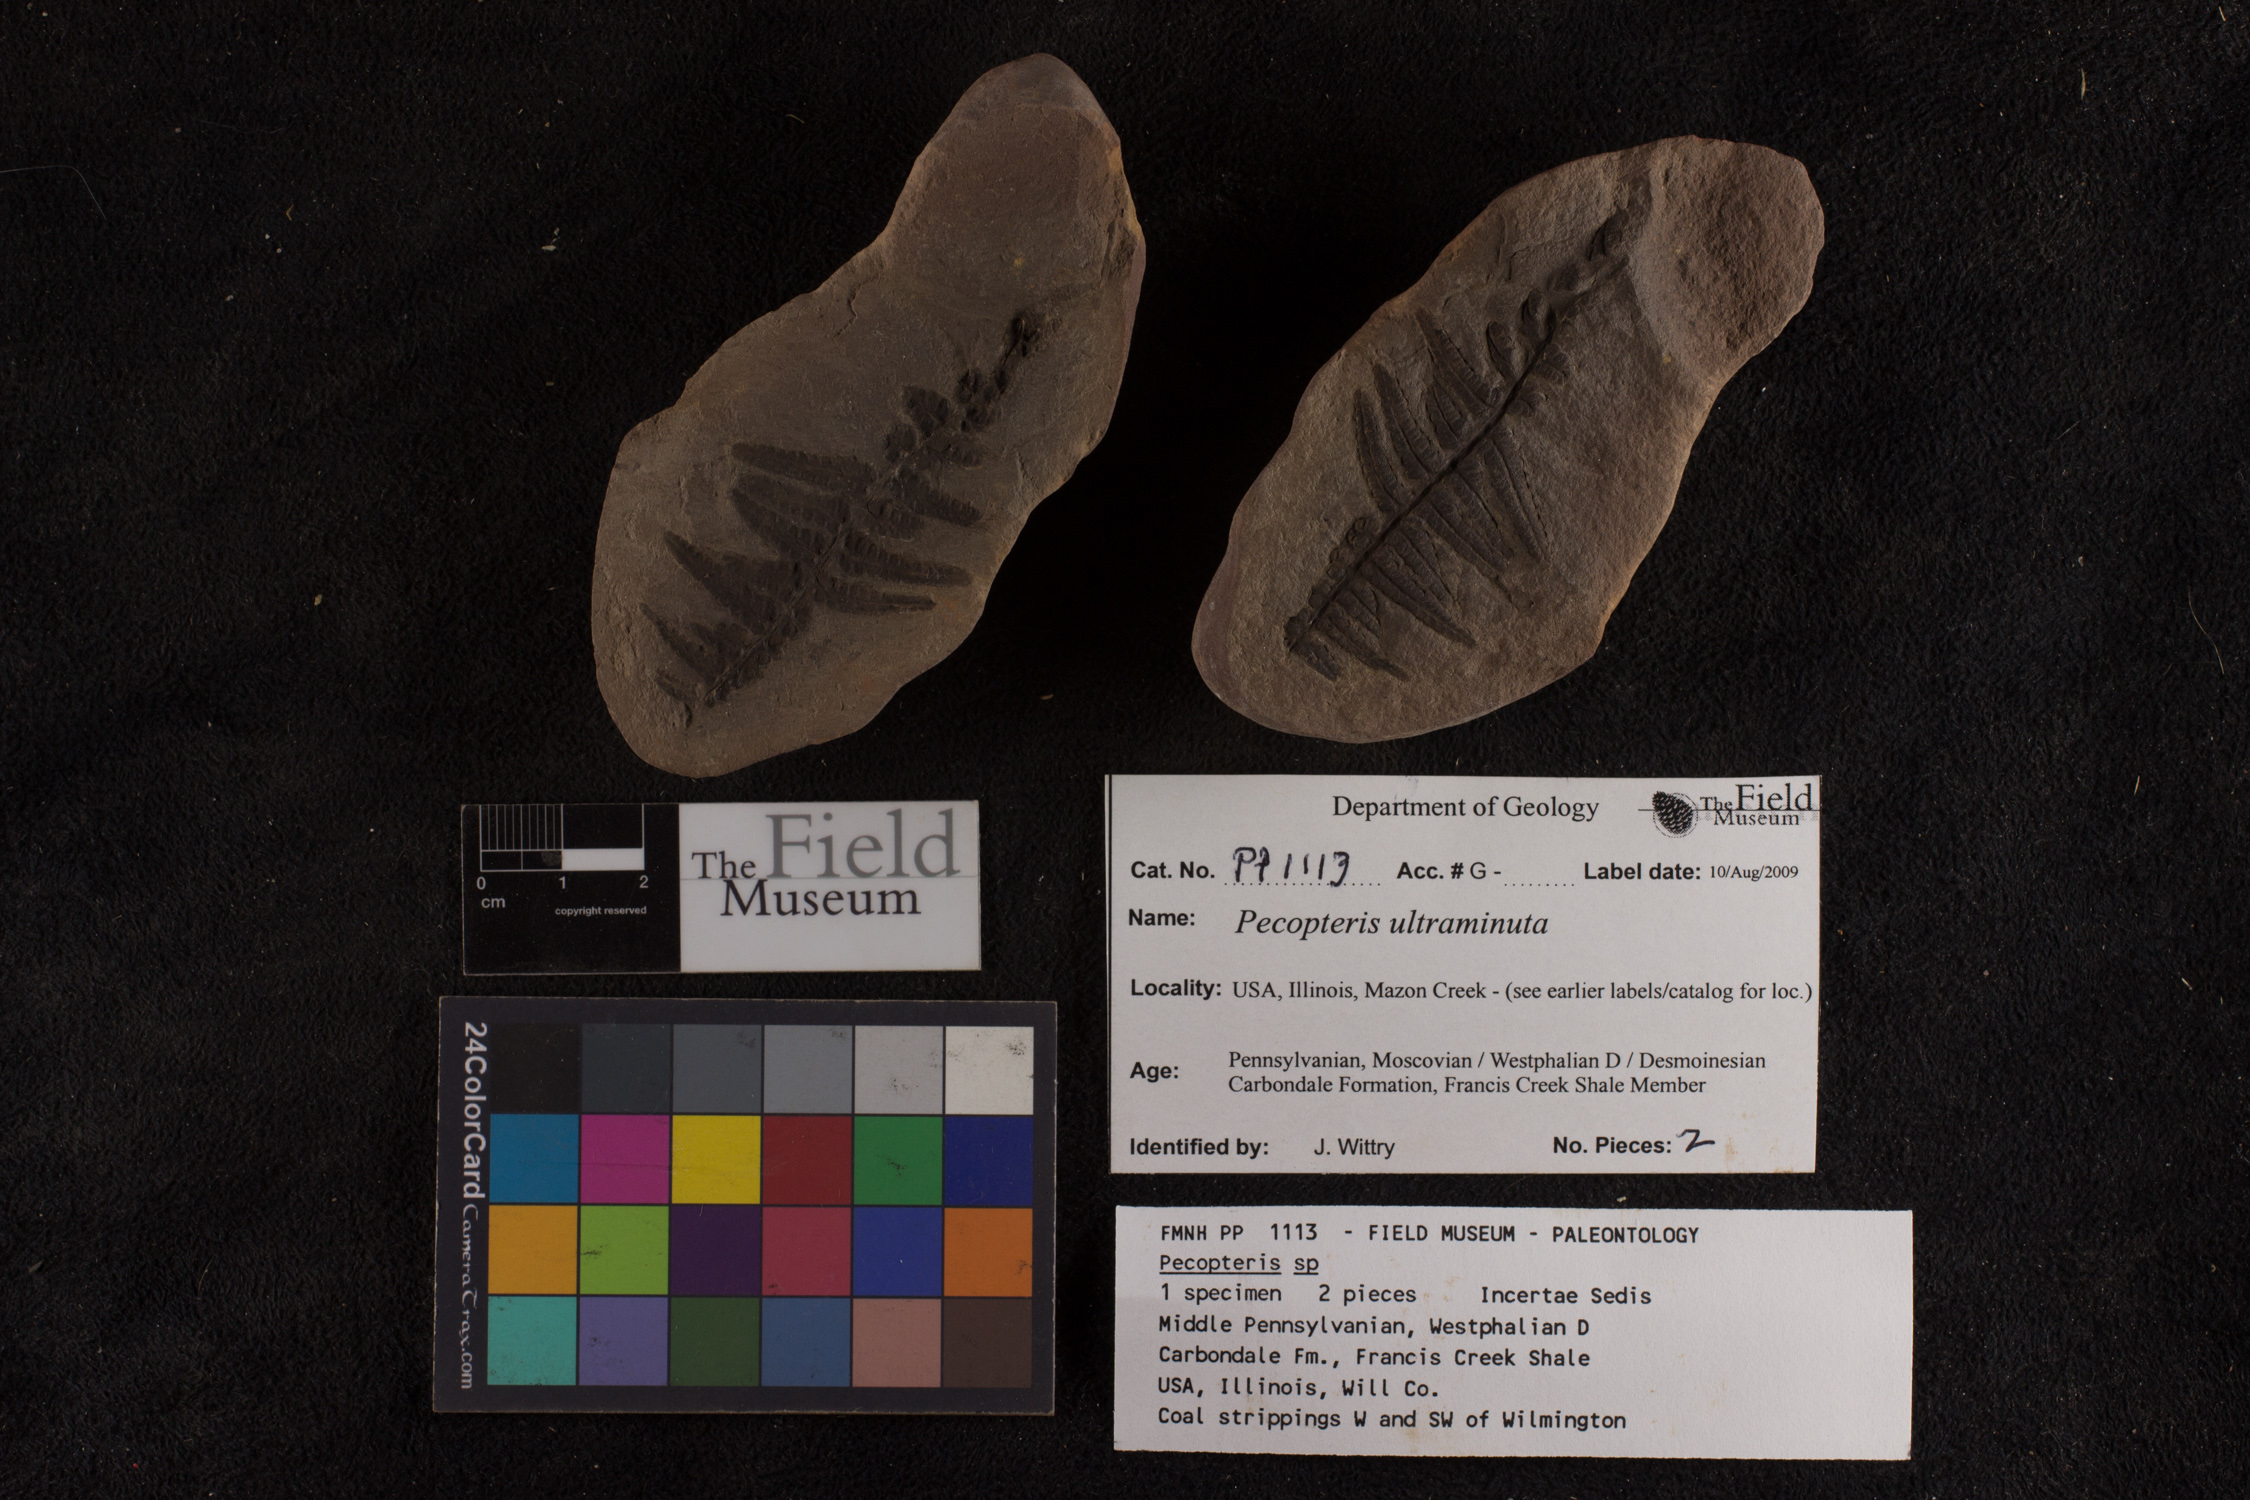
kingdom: Plantae
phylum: Tracheophyta
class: Polypodiopsida
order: Marattiales
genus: Cyathocarpus
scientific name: Cyathocarpus
